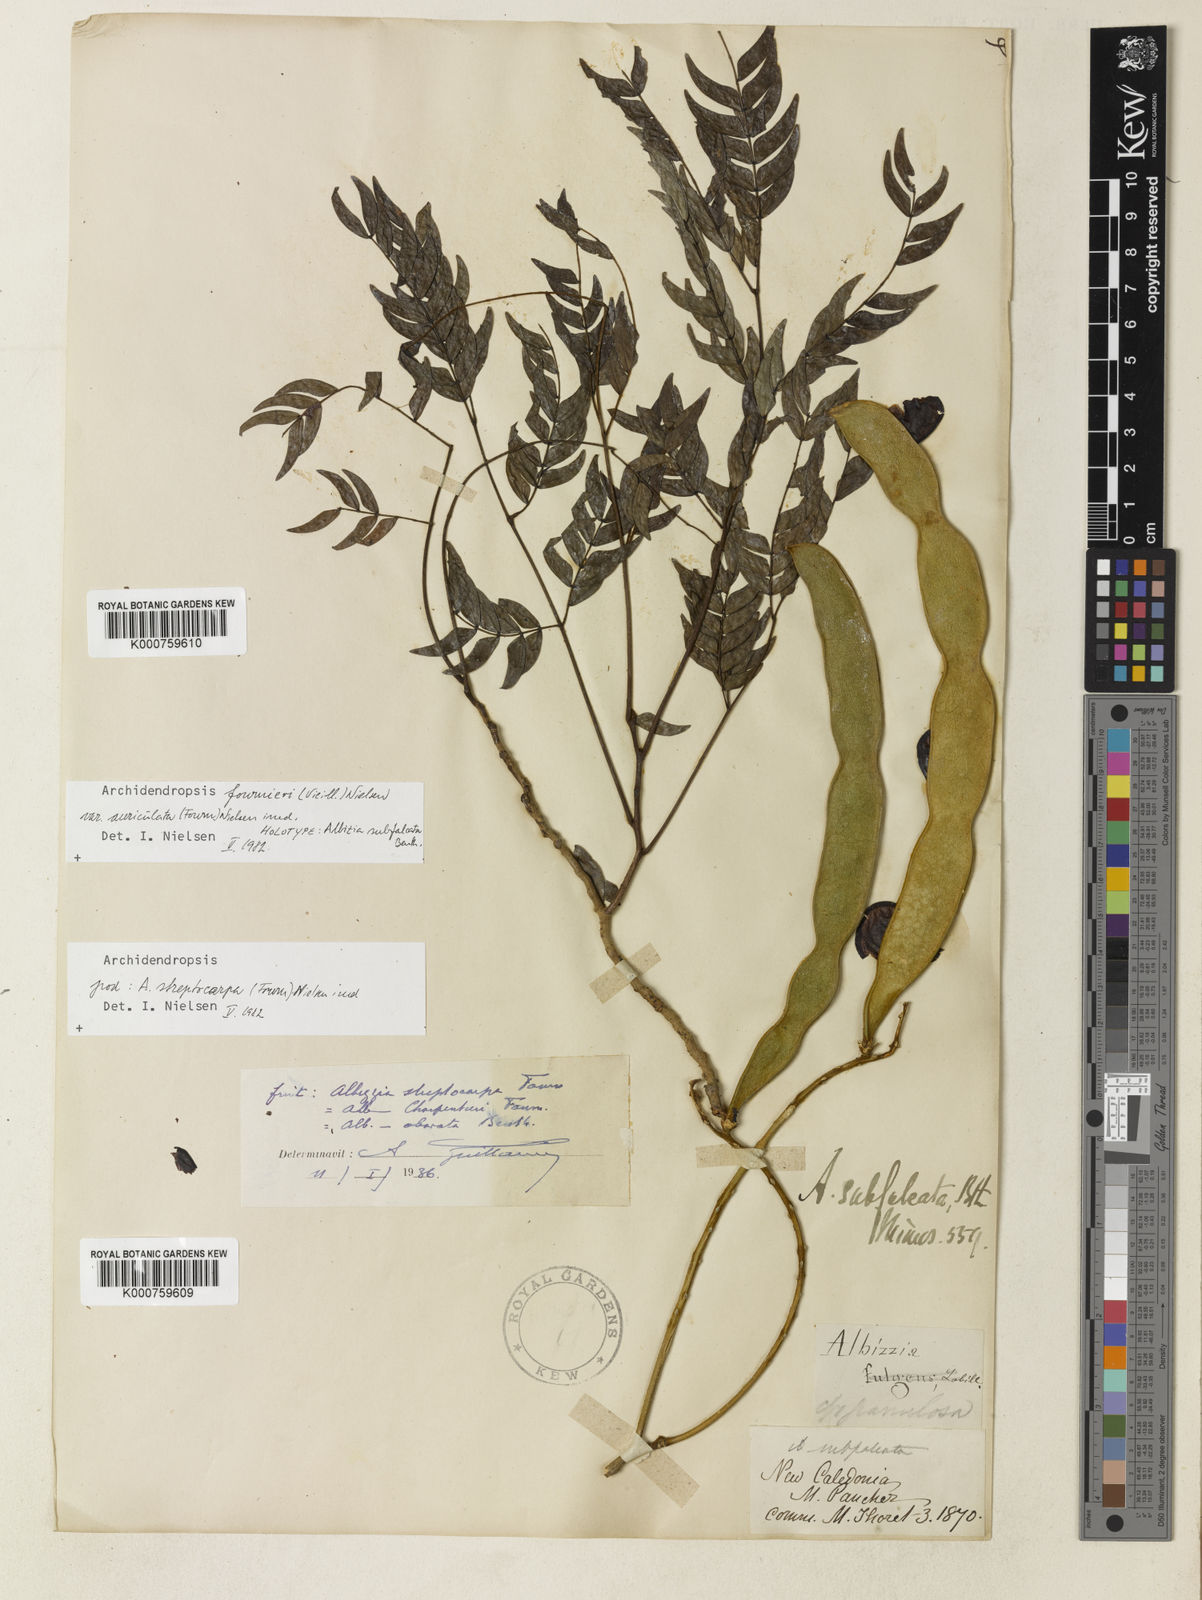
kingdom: Plantae
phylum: Tracheophyta
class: Magnoliopsida
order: Fabales
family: Fabaceae
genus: Archidendropsis
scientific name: Archidendropsis fournieri
